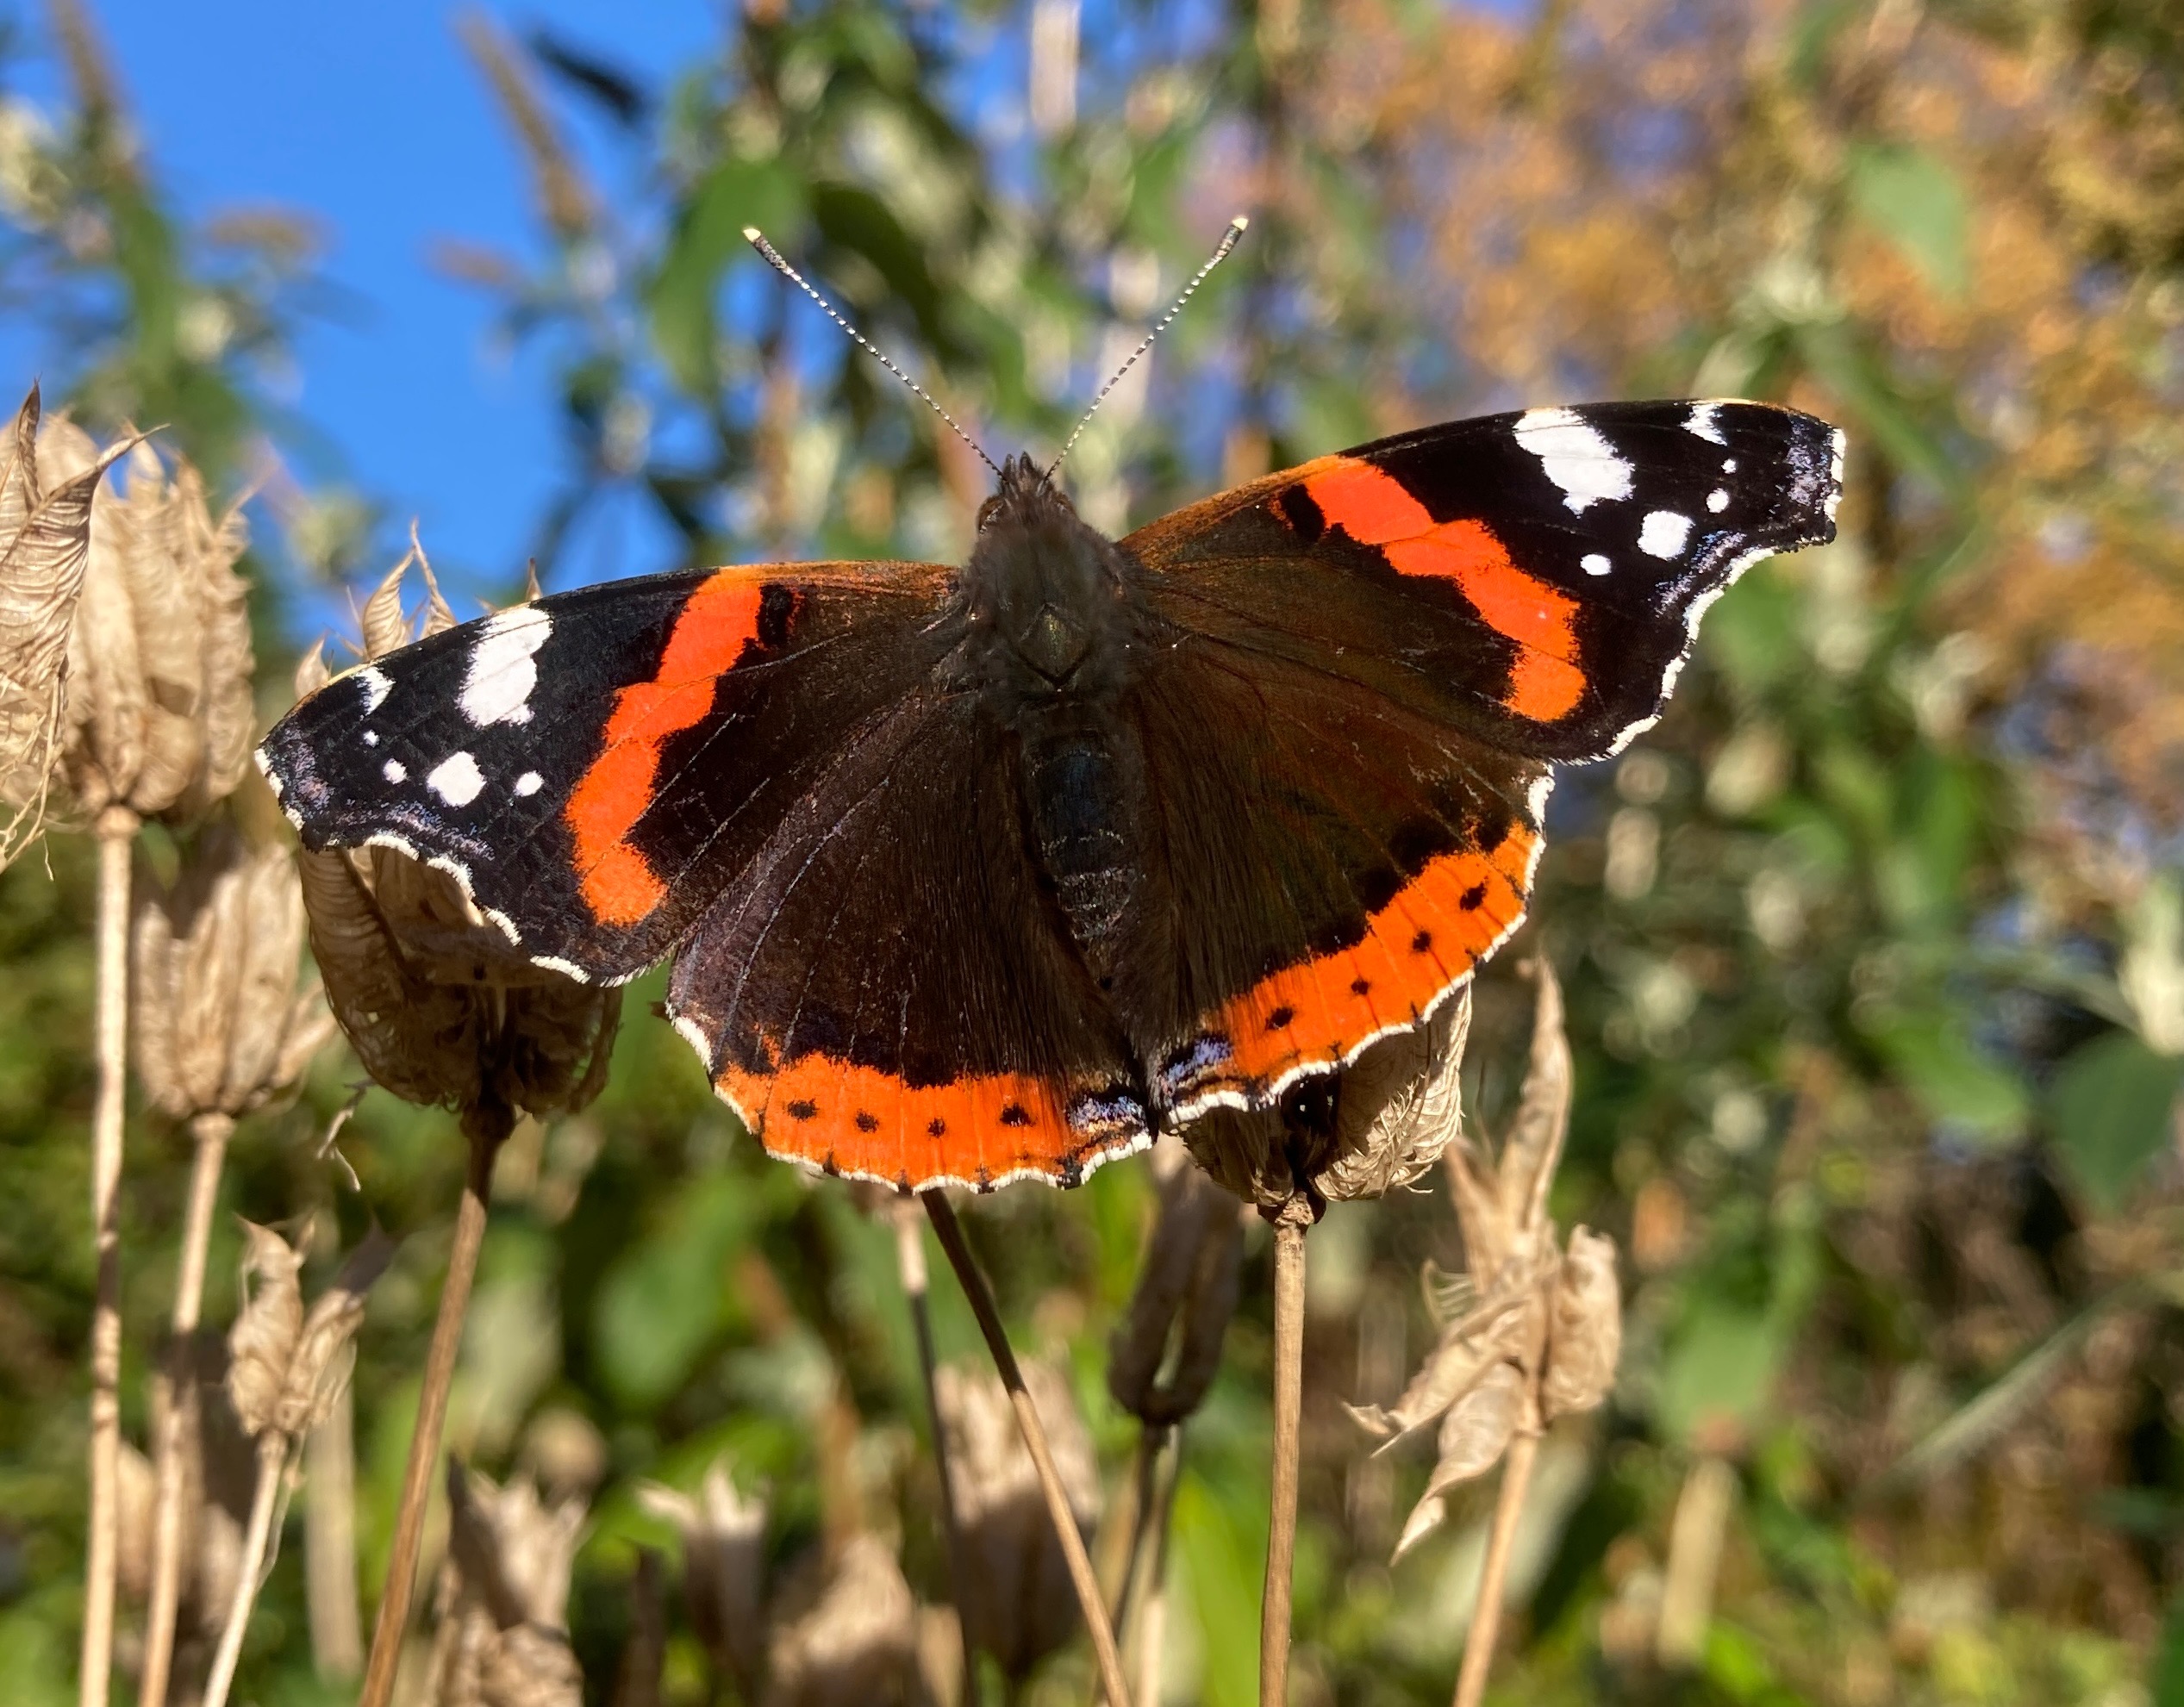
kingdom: Animalia
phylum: Arthropoda
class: Insecta
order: Lepidoptera
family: Nymphalidae
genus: Vanessa
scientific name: Vanessa atalanta
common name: Admiral
